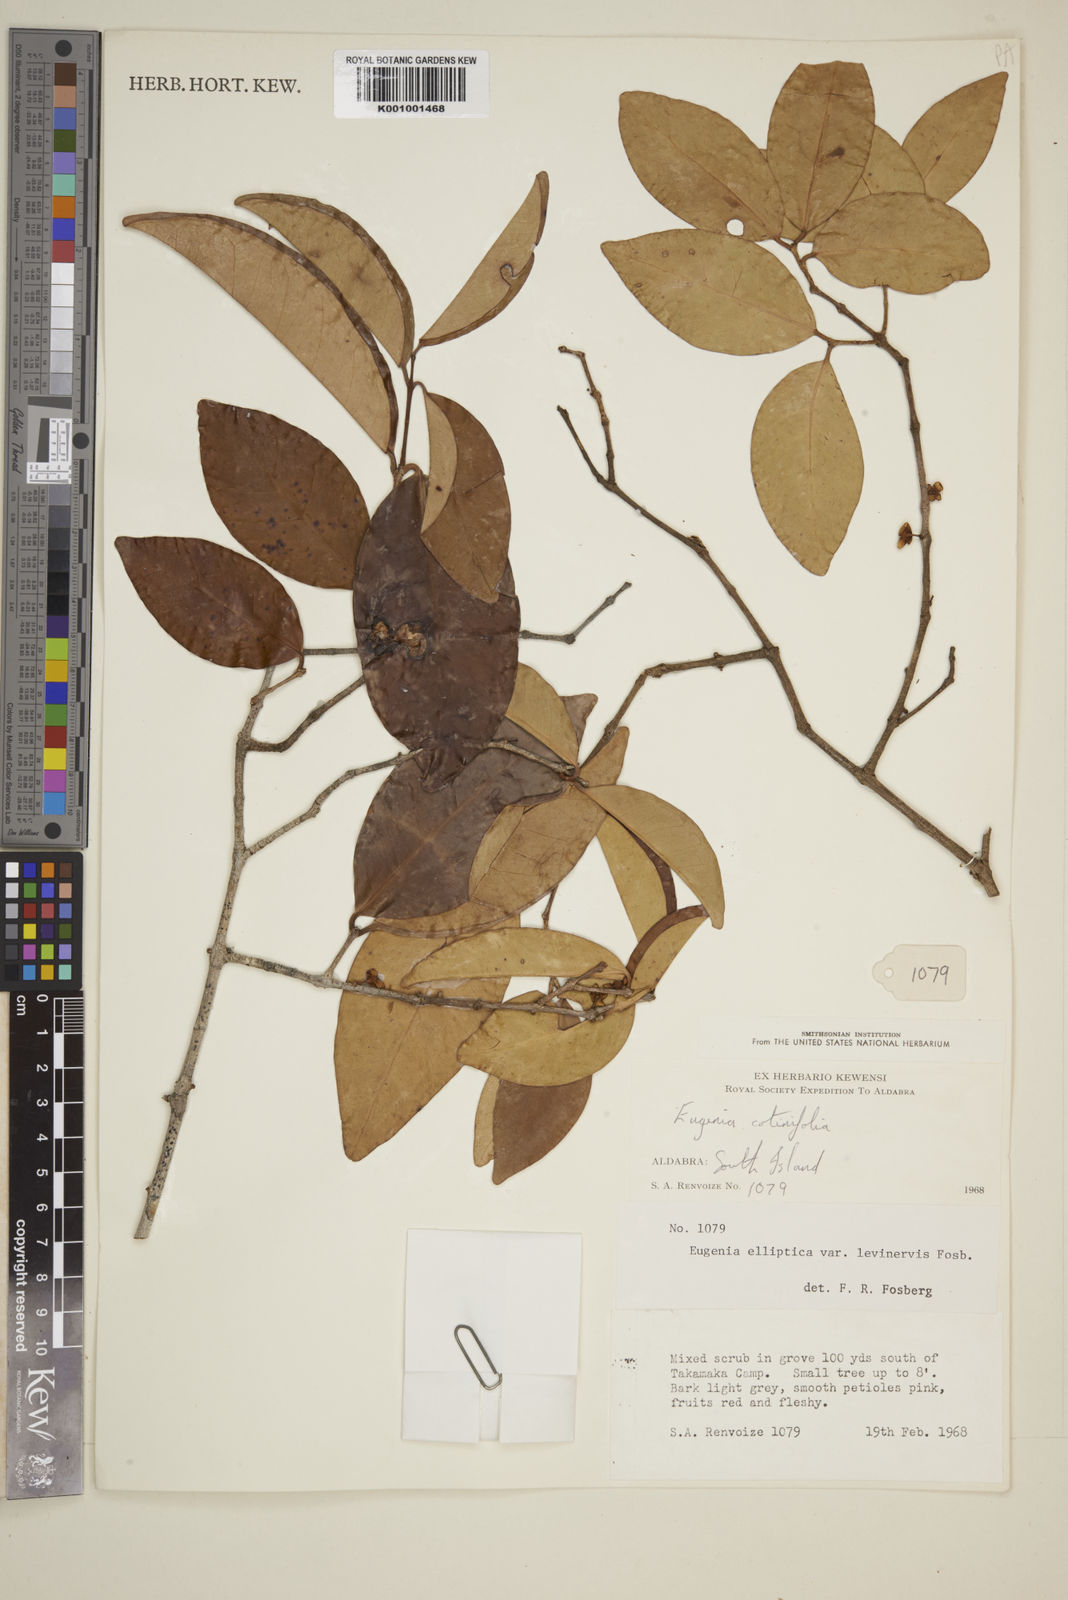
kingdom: Plantae
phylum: Tracheophyta
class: Magnoliopsida
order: Myrtales
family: Myrtaceae
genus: Eugenia
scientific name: Eugenia levinervis
